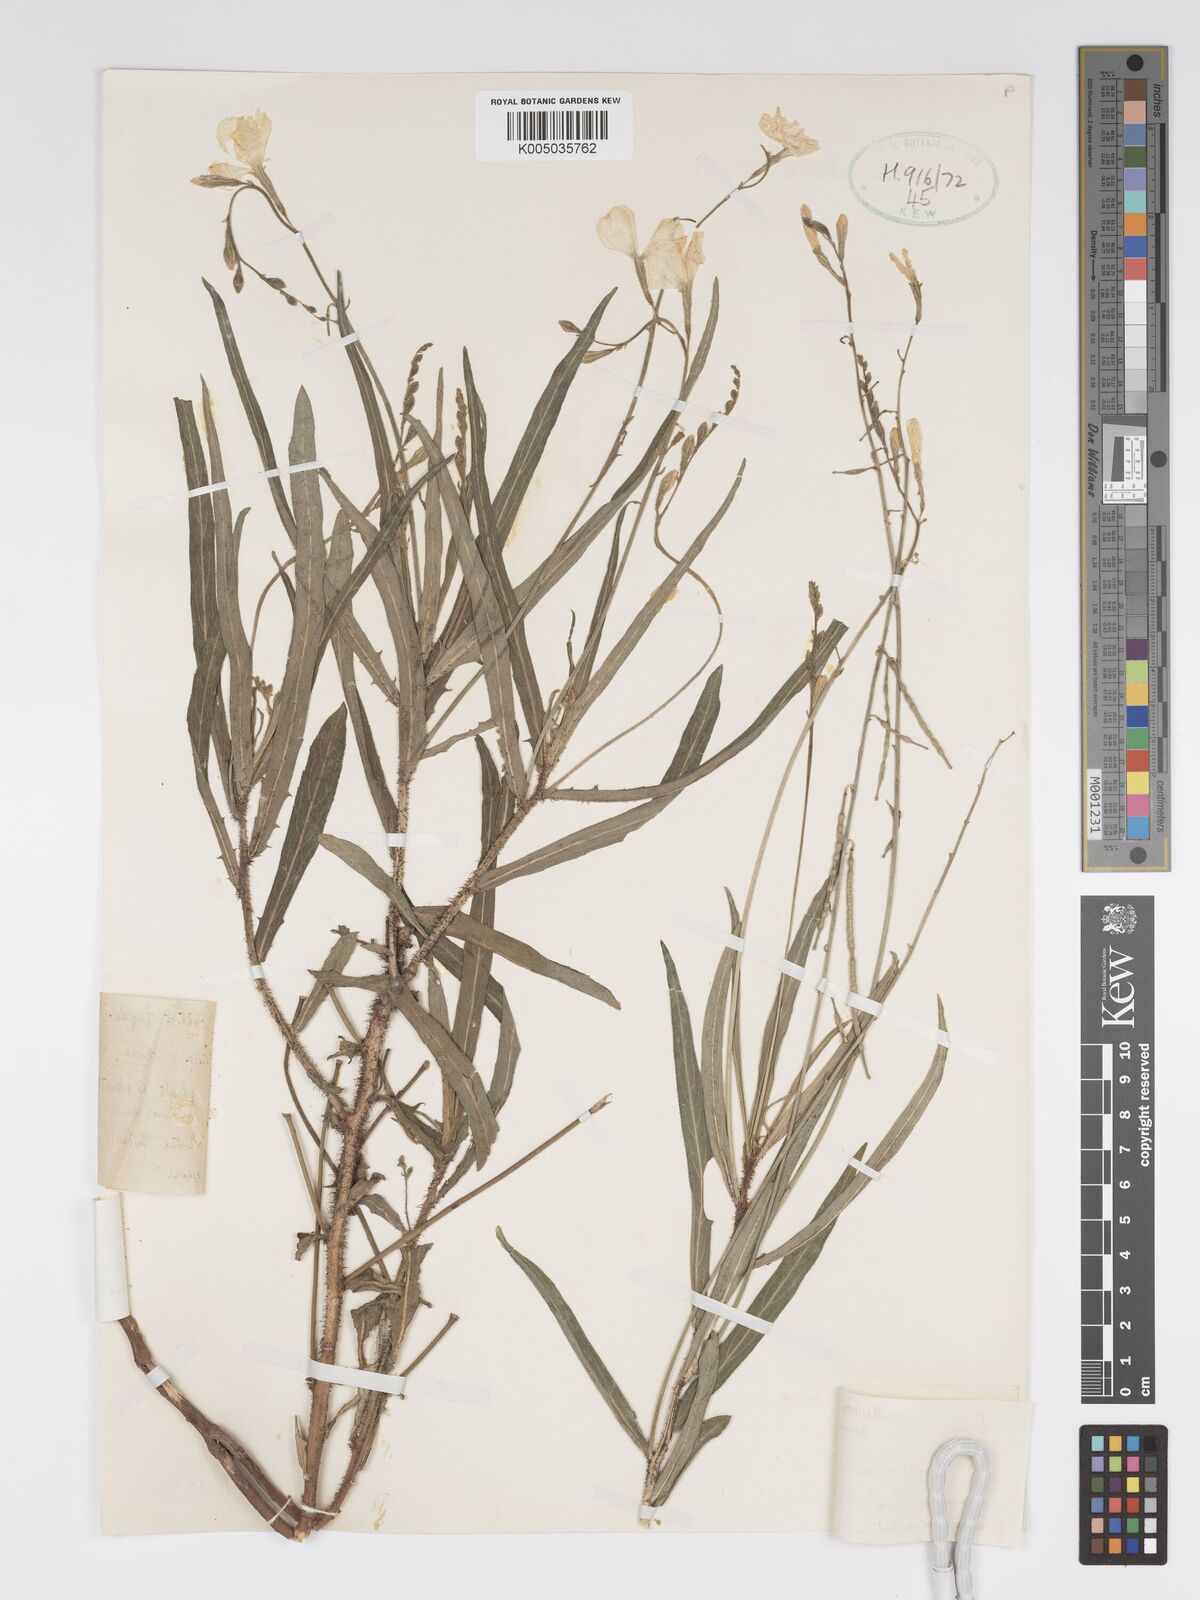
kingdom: Plantae
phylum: Tracheophyta
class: Magnoliopsida
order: Malpighiales
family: Turneraceae
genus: Tricliceras
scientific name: Tricliceras longepedunculatum
